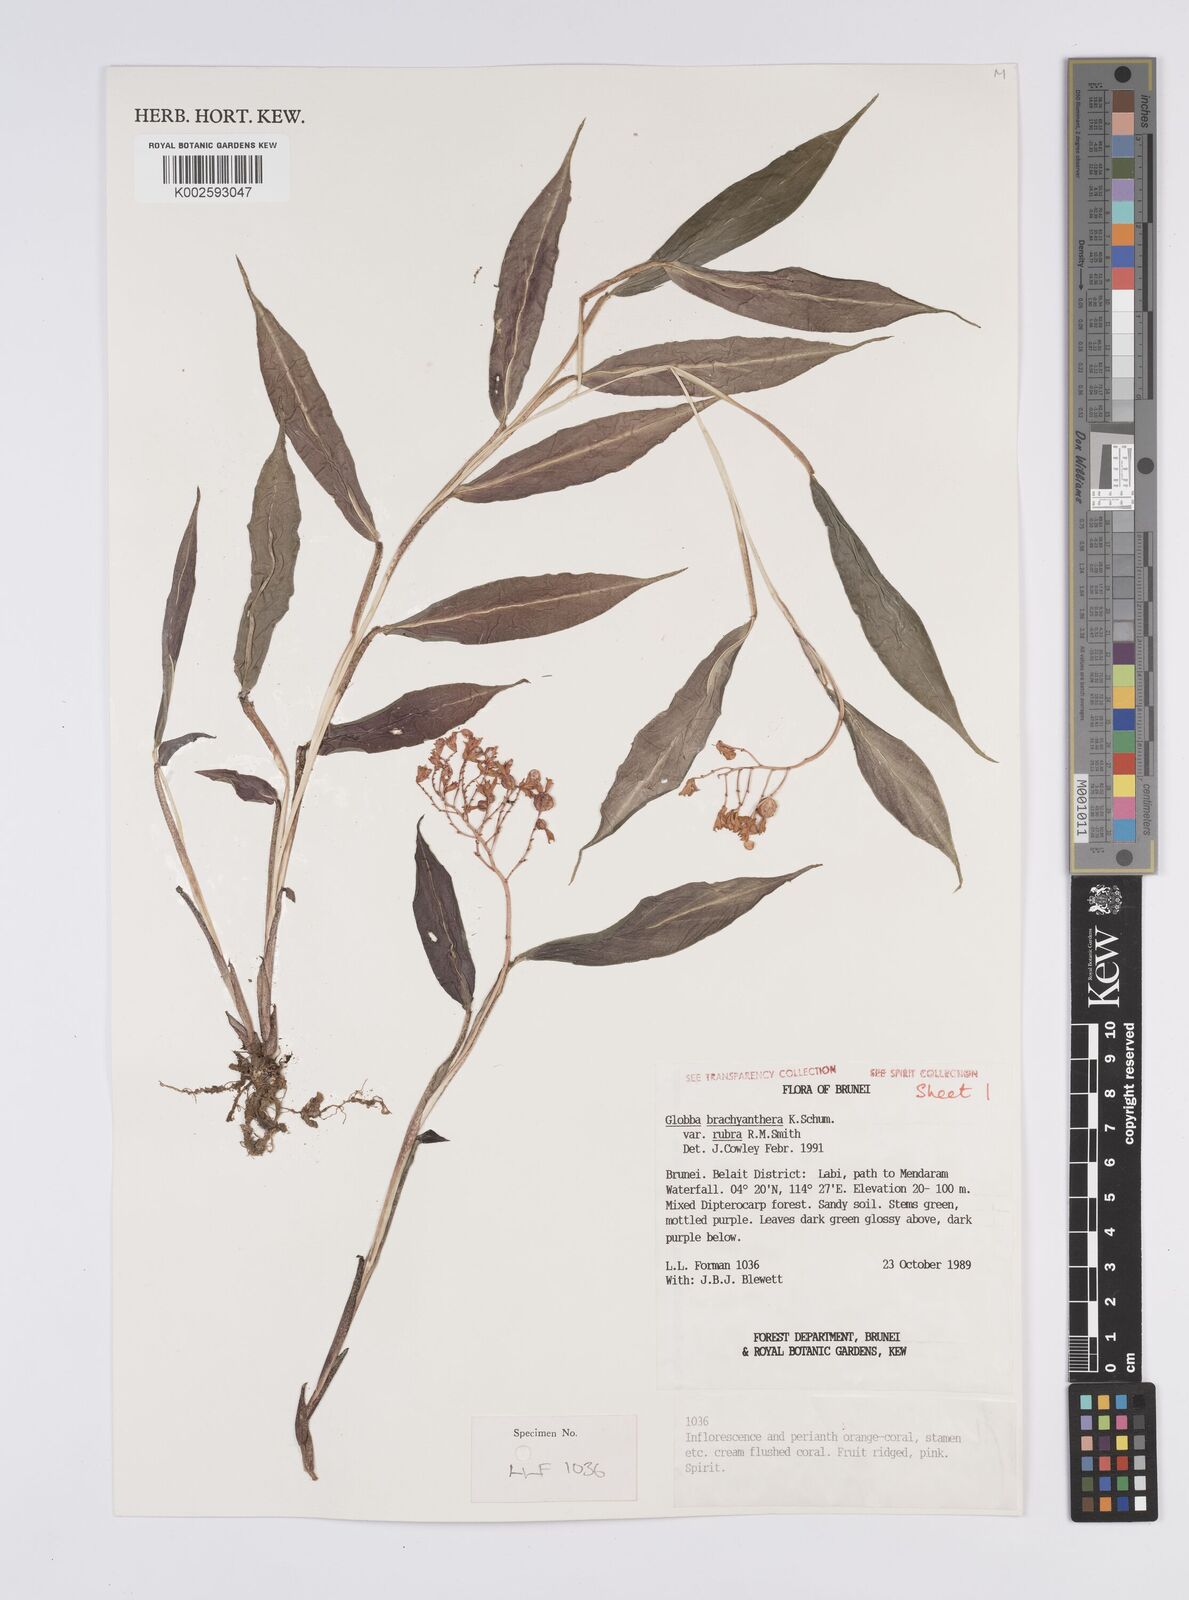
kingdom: Plantae
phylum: Tracheophyta
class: Liliopsida
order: Zingiberales
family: Zingiberaceae
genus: Globba
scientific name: Globba brachyanthera
